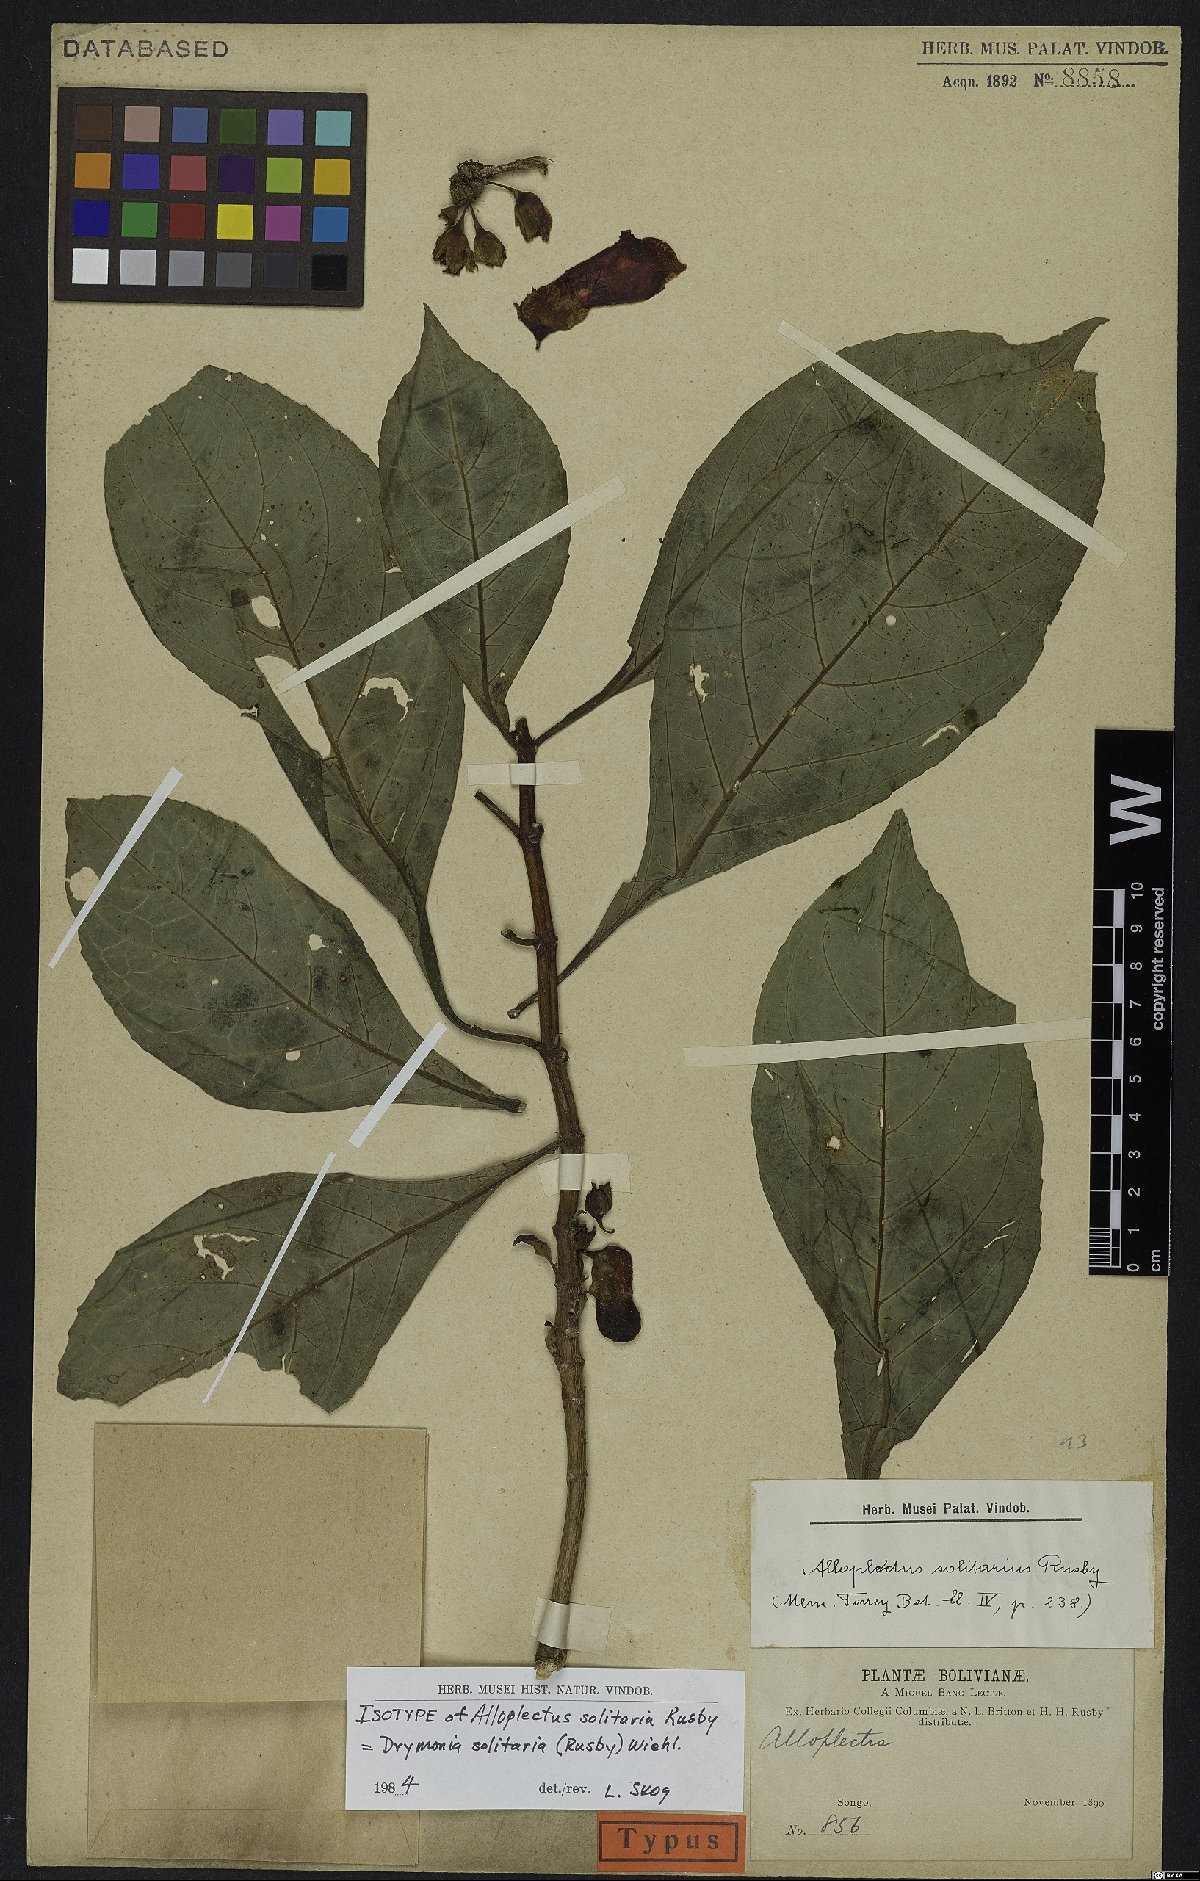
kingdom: Plantae
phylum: Tracheophyta
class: Magnoliopsida
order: Lamiales
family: Gesneriaceae
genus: Drymonia
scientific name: Drymonia solitaria
